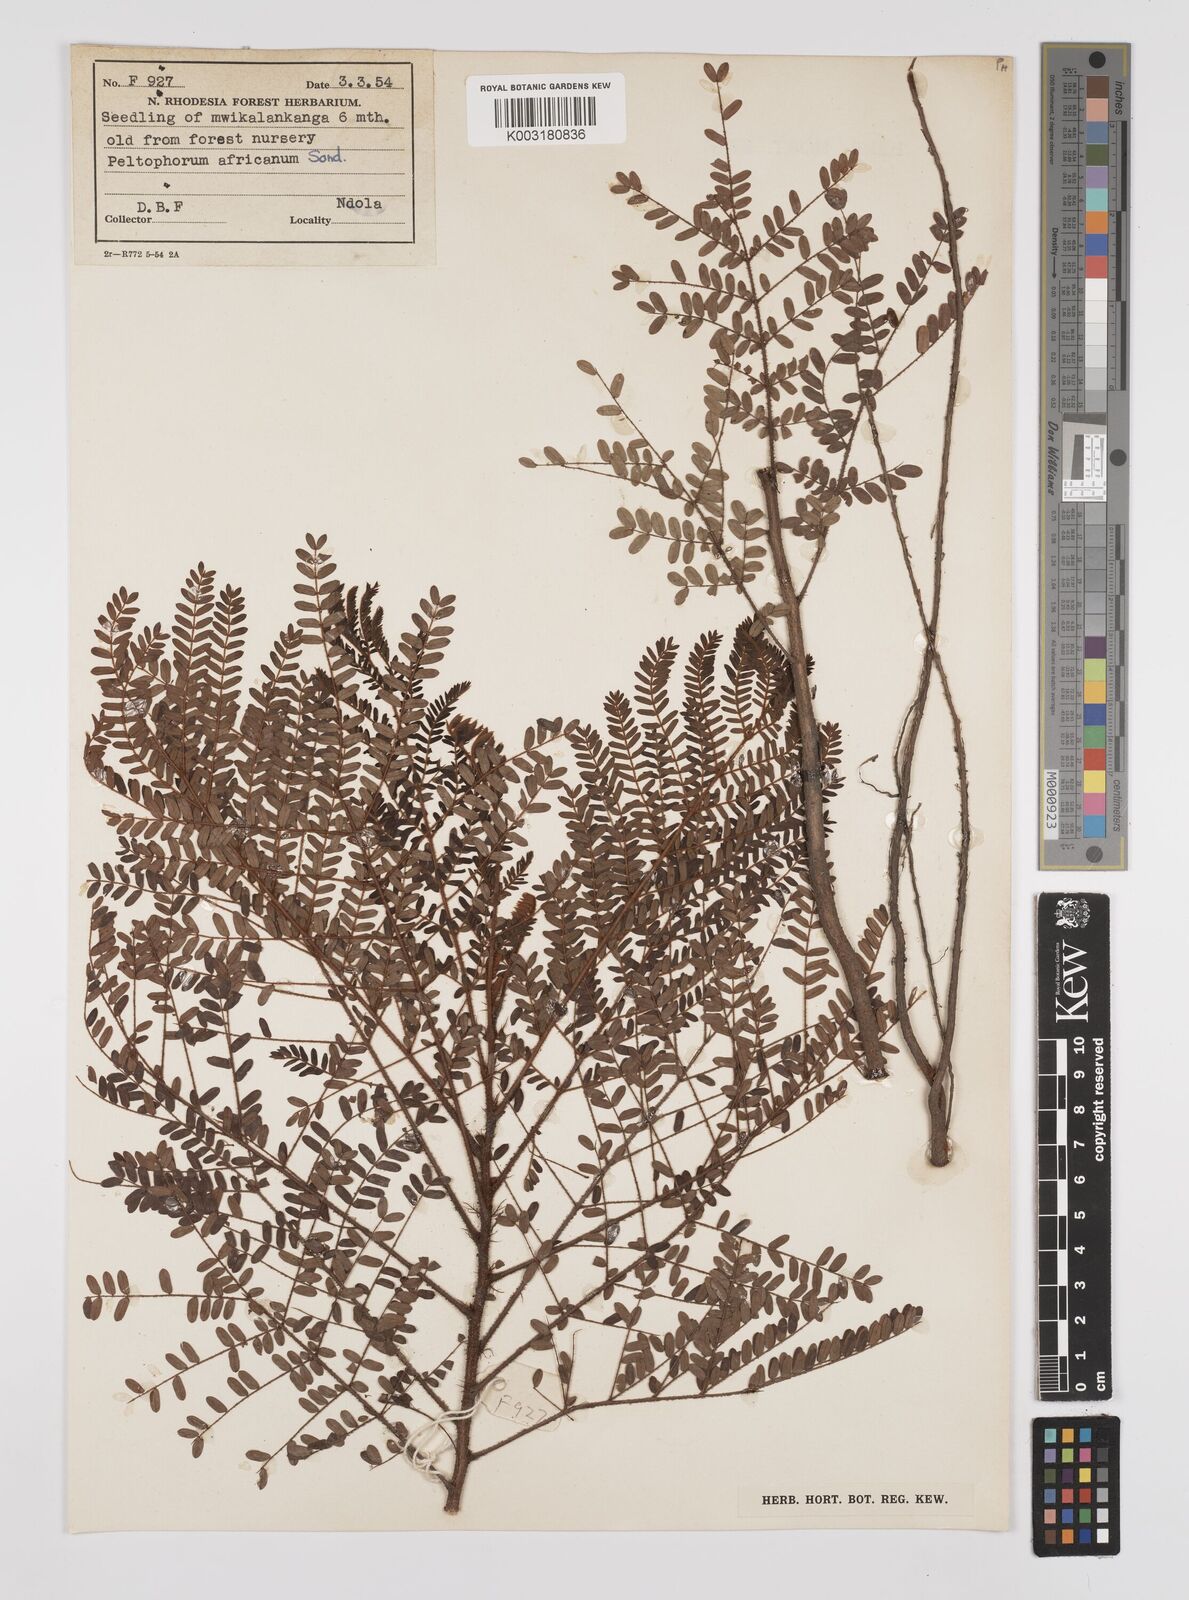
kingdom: Plantae
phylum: Tracheophyta
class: Magnoliopsida
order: Fabales
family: Fabaceae
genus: Peltophorum
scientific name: Peltophorum africanum
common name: African black wattle
